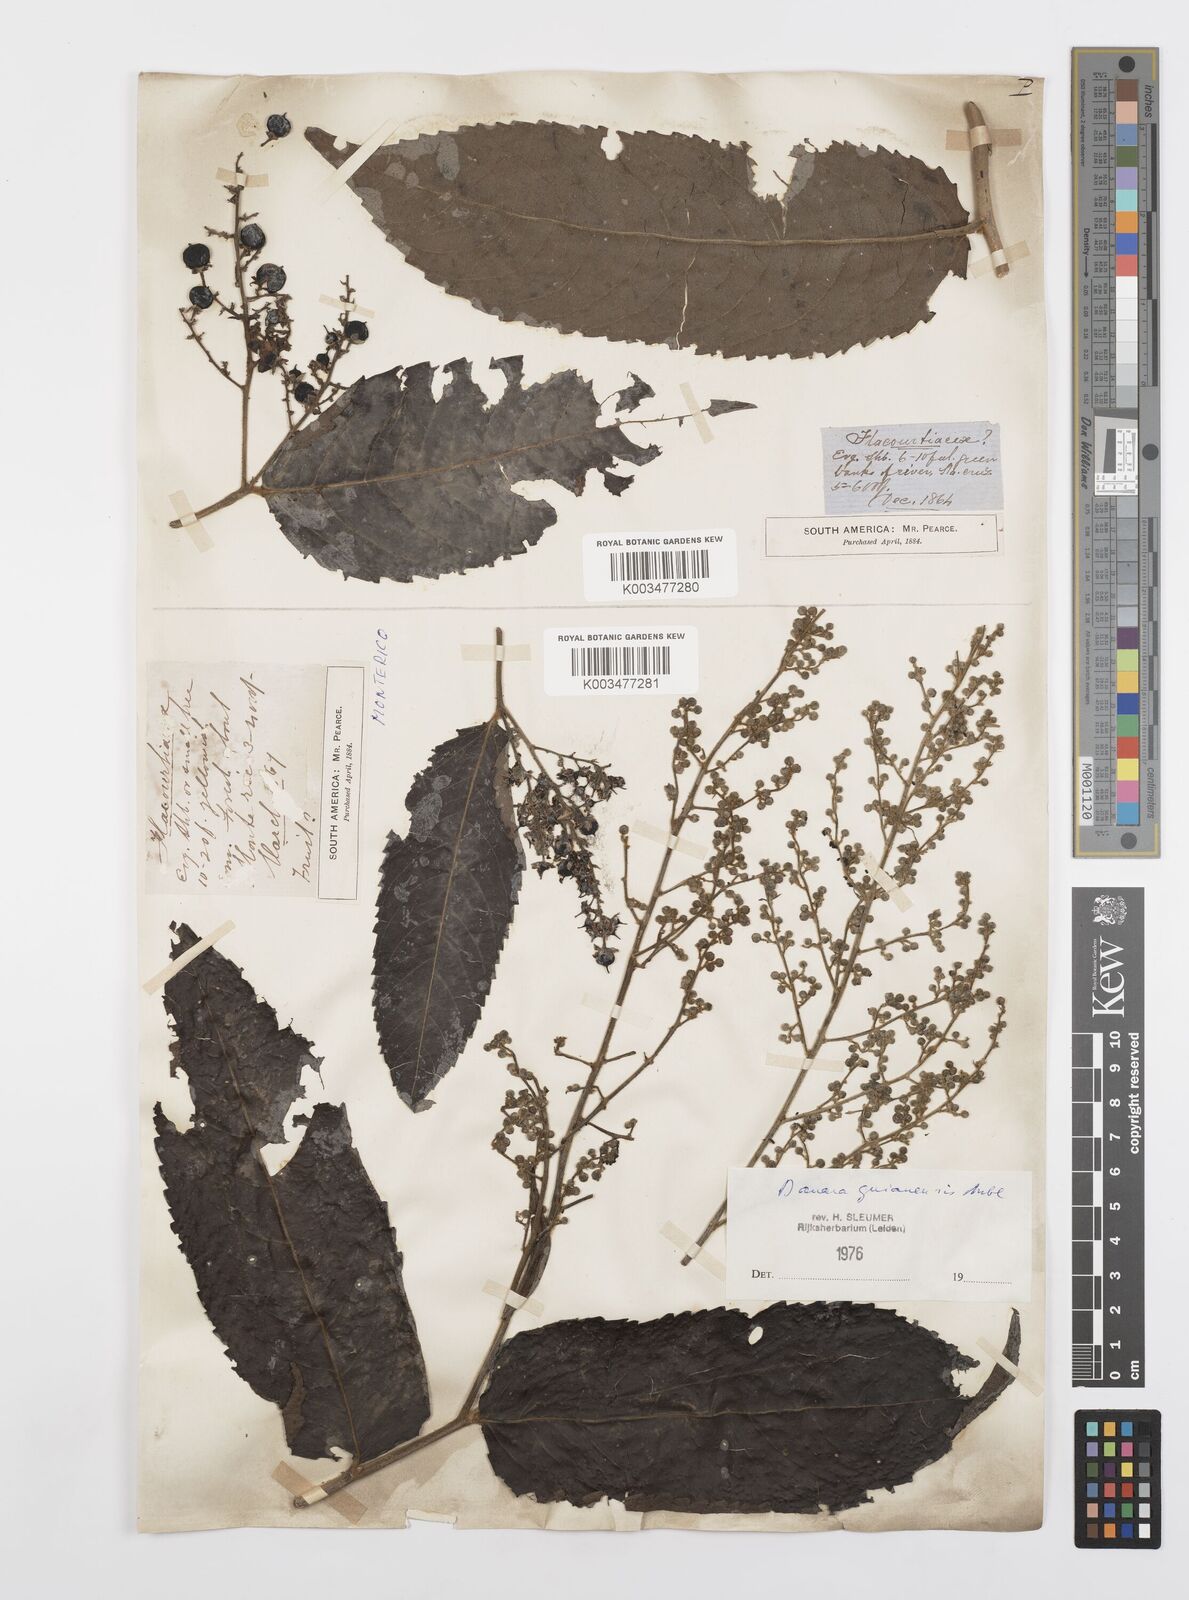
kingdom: Plantae
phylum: Tracheophyta
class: Magnoliopsida
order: Malpighiales
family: Salicaceae
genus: Banara
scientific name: Banara guianensis
